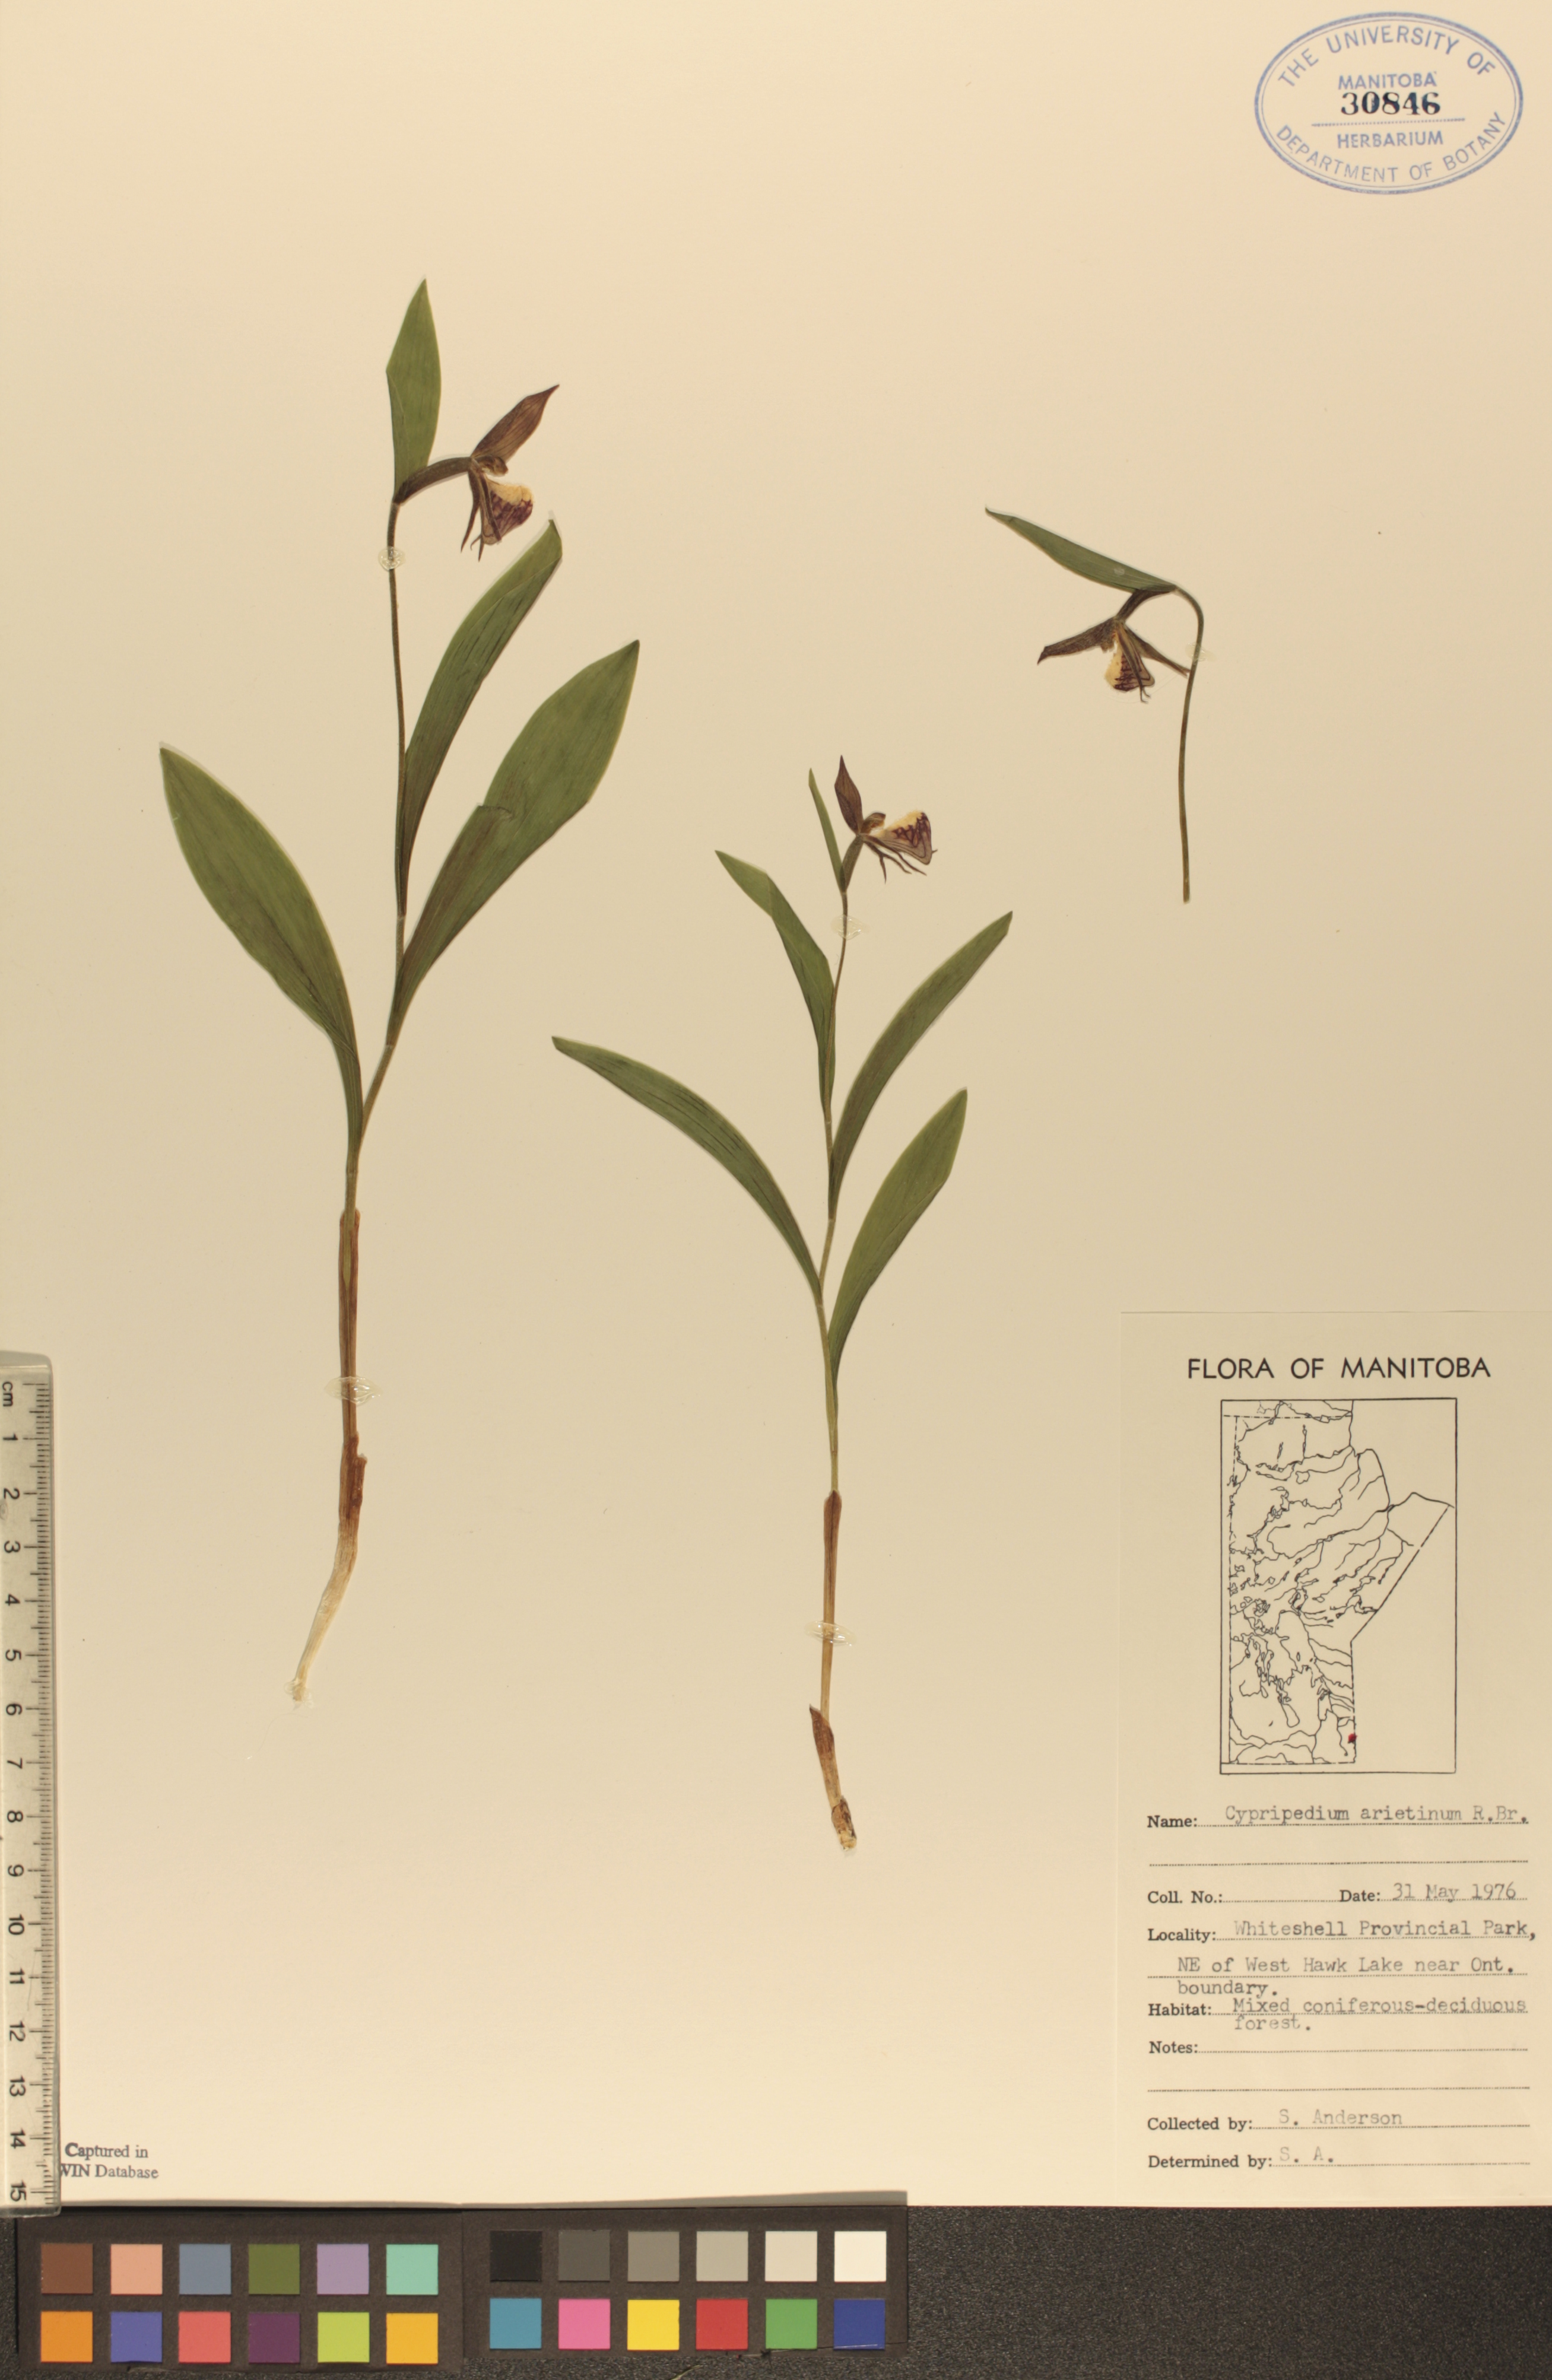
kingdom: Plantae
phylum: Tracheophyta
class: Liliopsida
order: Asparagales
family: Orchidaceae
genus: Cypripedium
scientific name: Cypripedium arietinum
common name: Ram's-head
